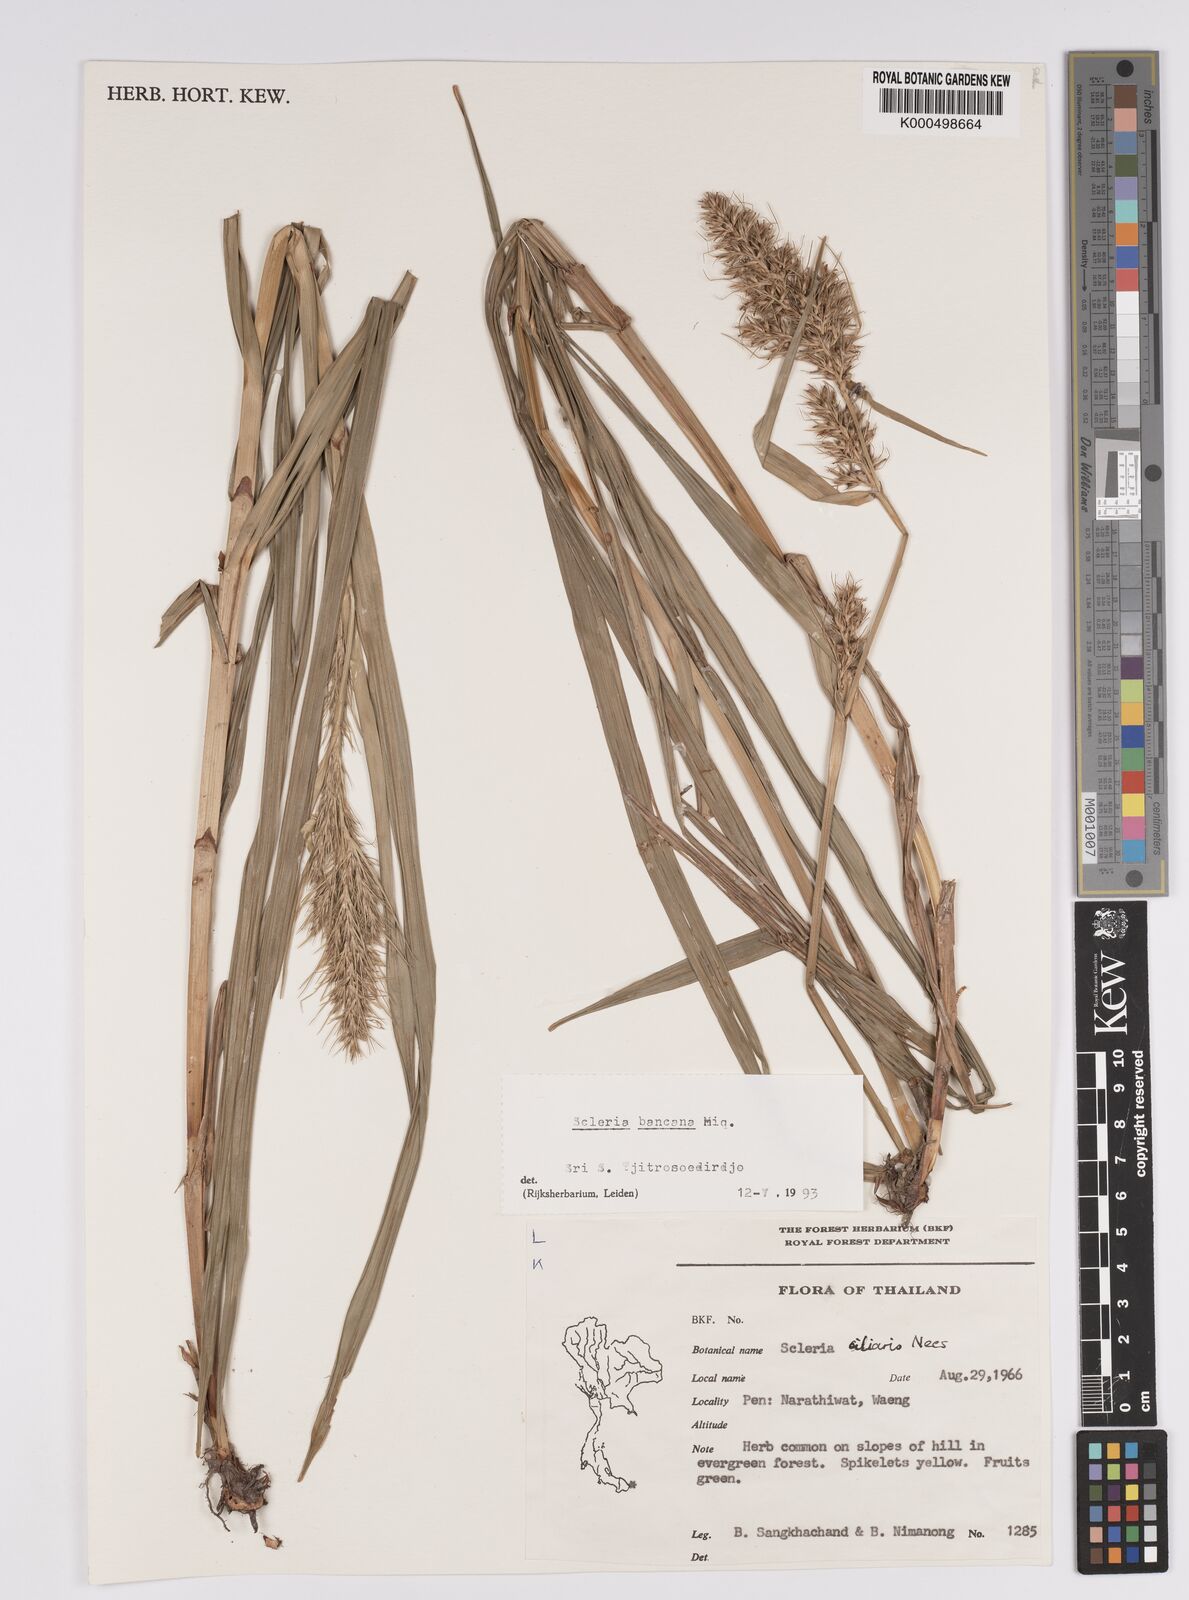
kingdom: Plantae
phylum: Tracheophyta
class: Liliopsida
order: Poales
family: Cyperaceae
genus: Scleria
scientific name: Scleria ciliaris
